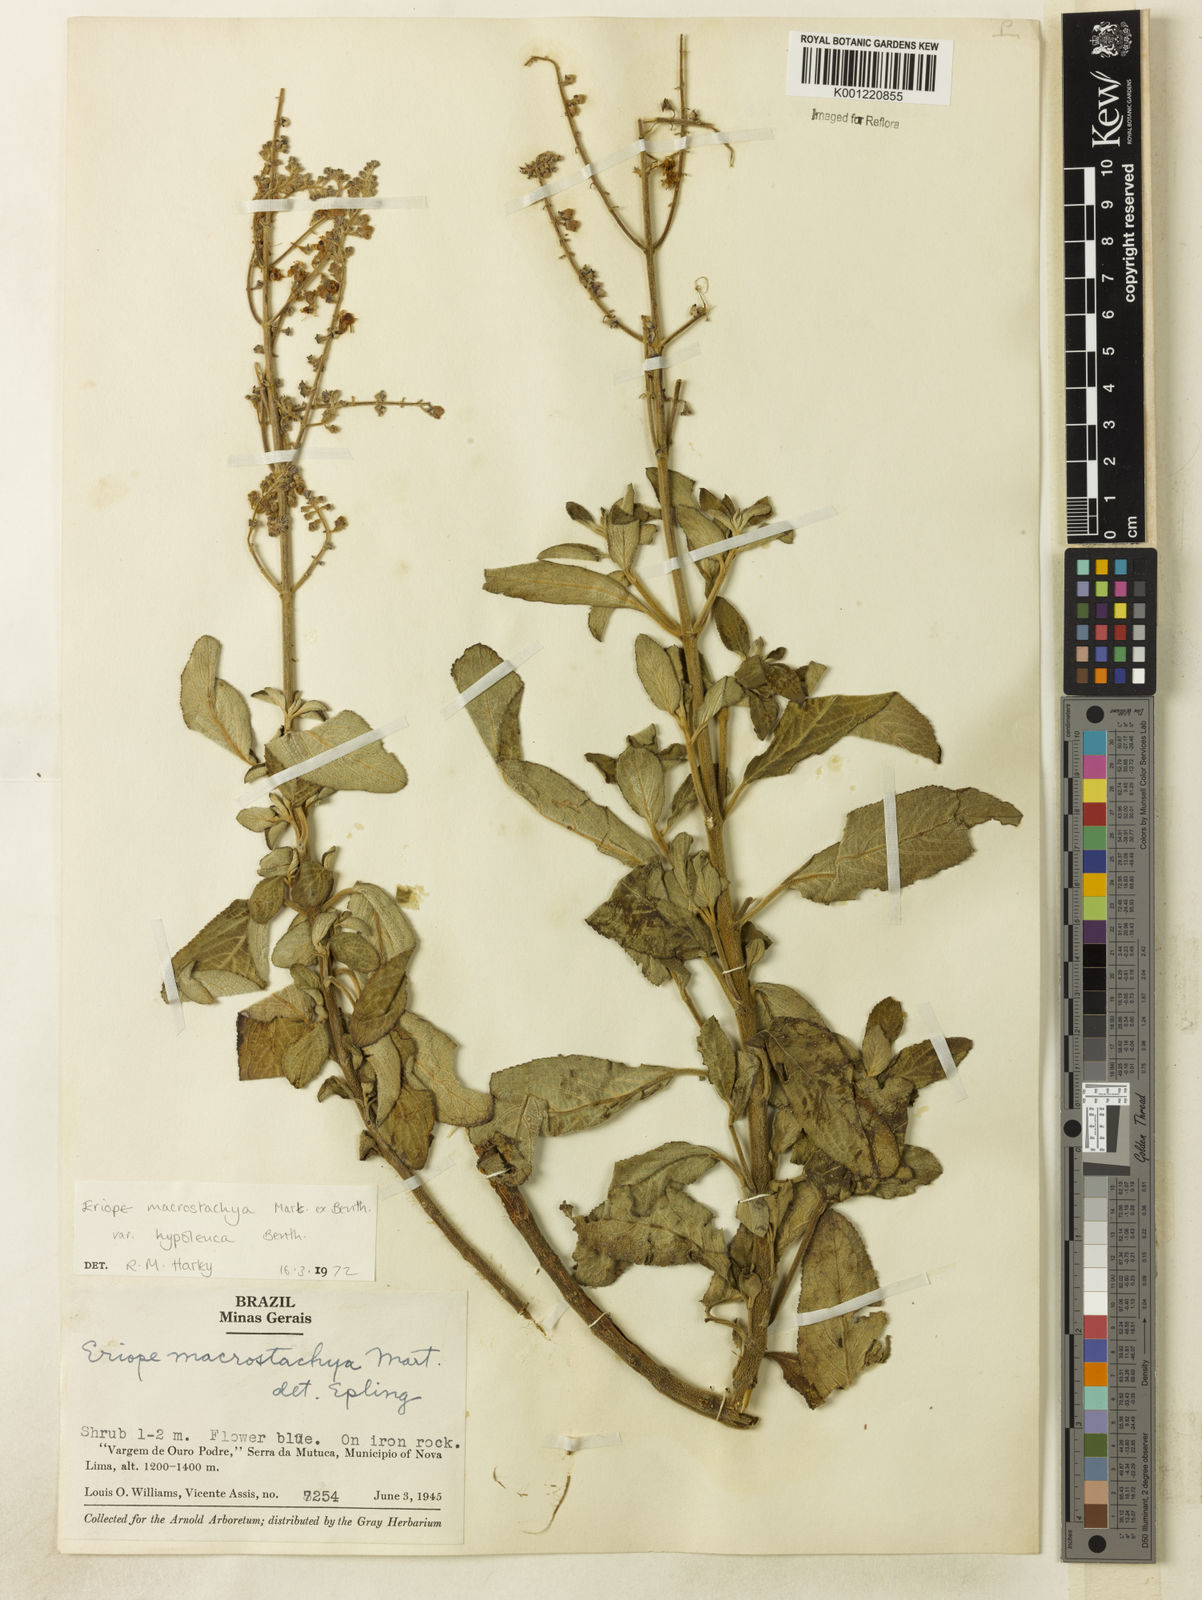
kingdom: Plantae
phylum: Tracheophyta
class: Magnoliopsida
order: Lamiales
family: Lamiaceae
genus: Eriope
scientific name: Eriope macrostachya
